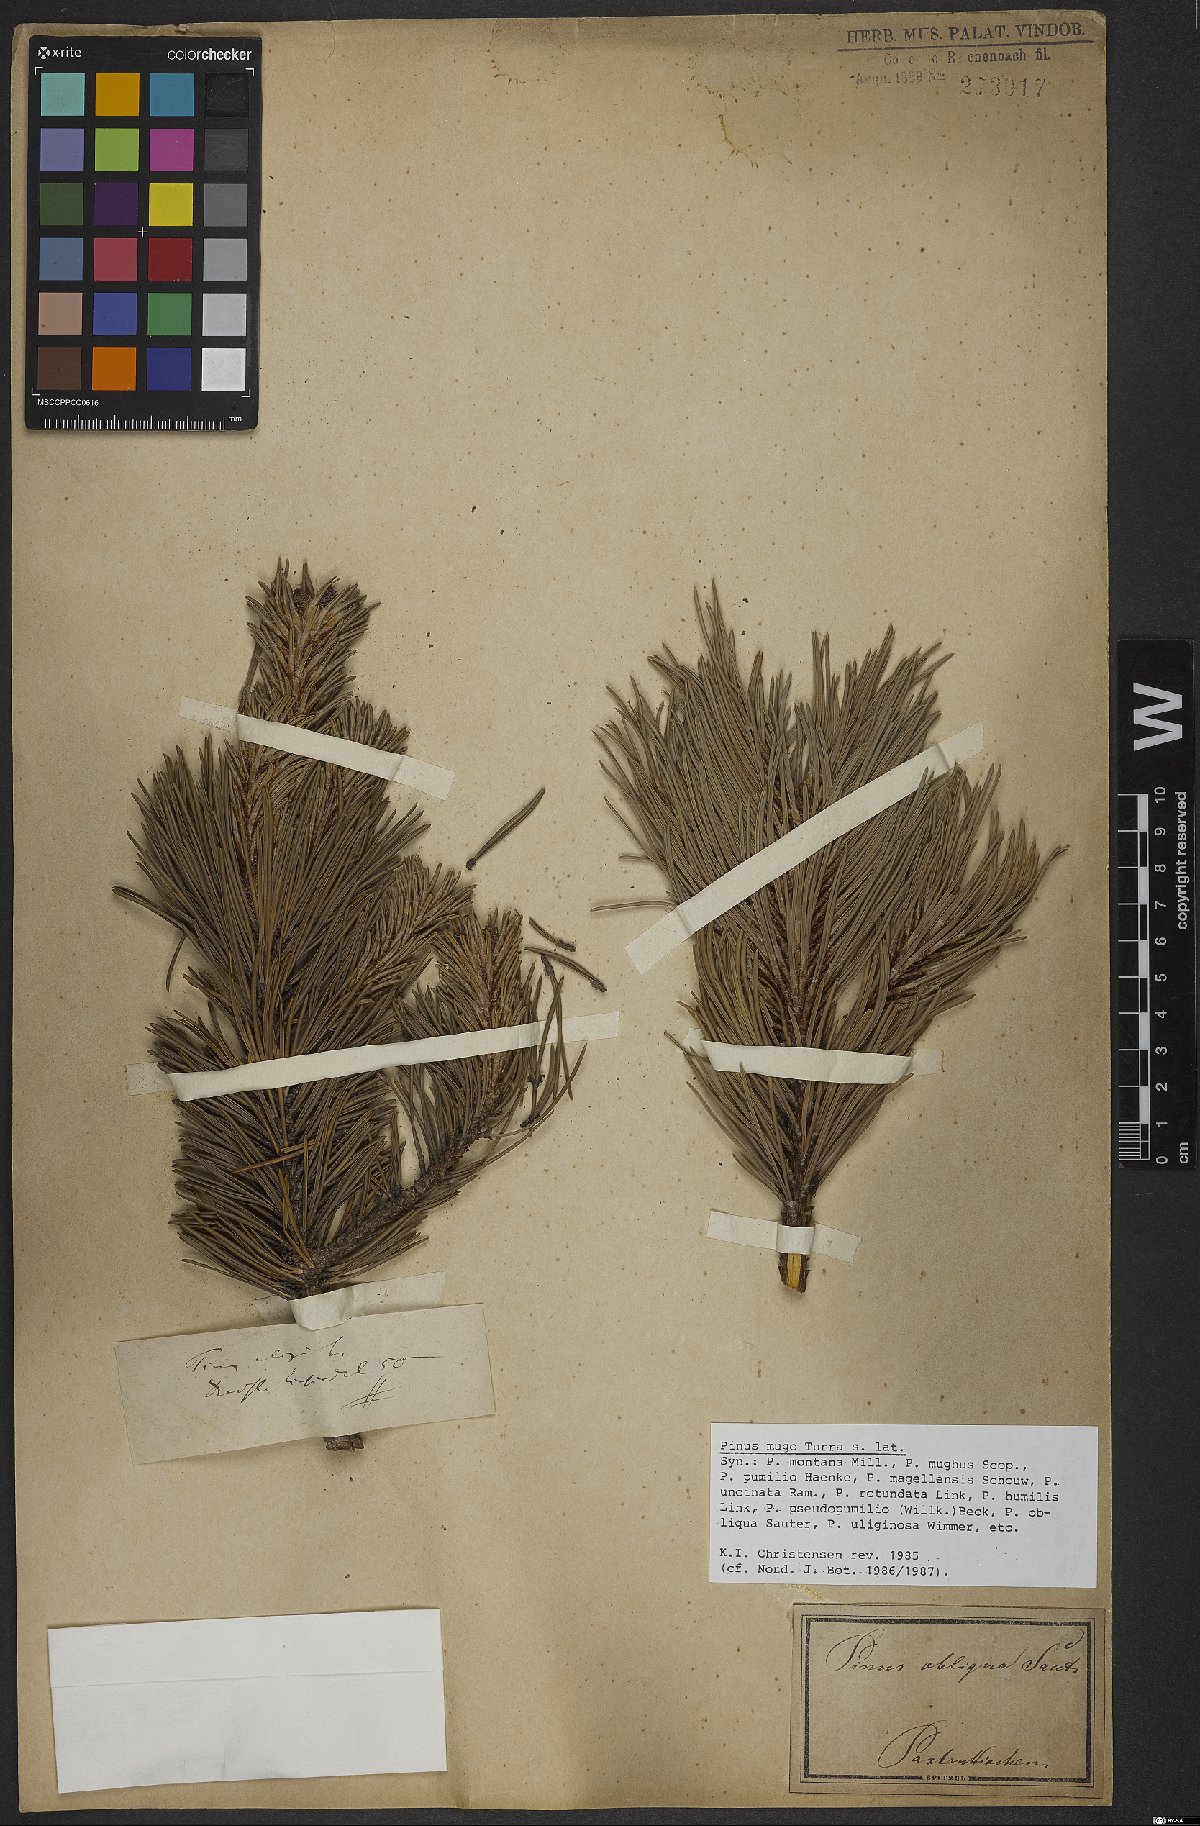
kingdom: Plantae
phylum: Tracheophyta
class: Pinopsida
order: Pinales
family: Pinaceae
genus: Pinus
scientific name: Pinus mugo
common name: Mugo pine
